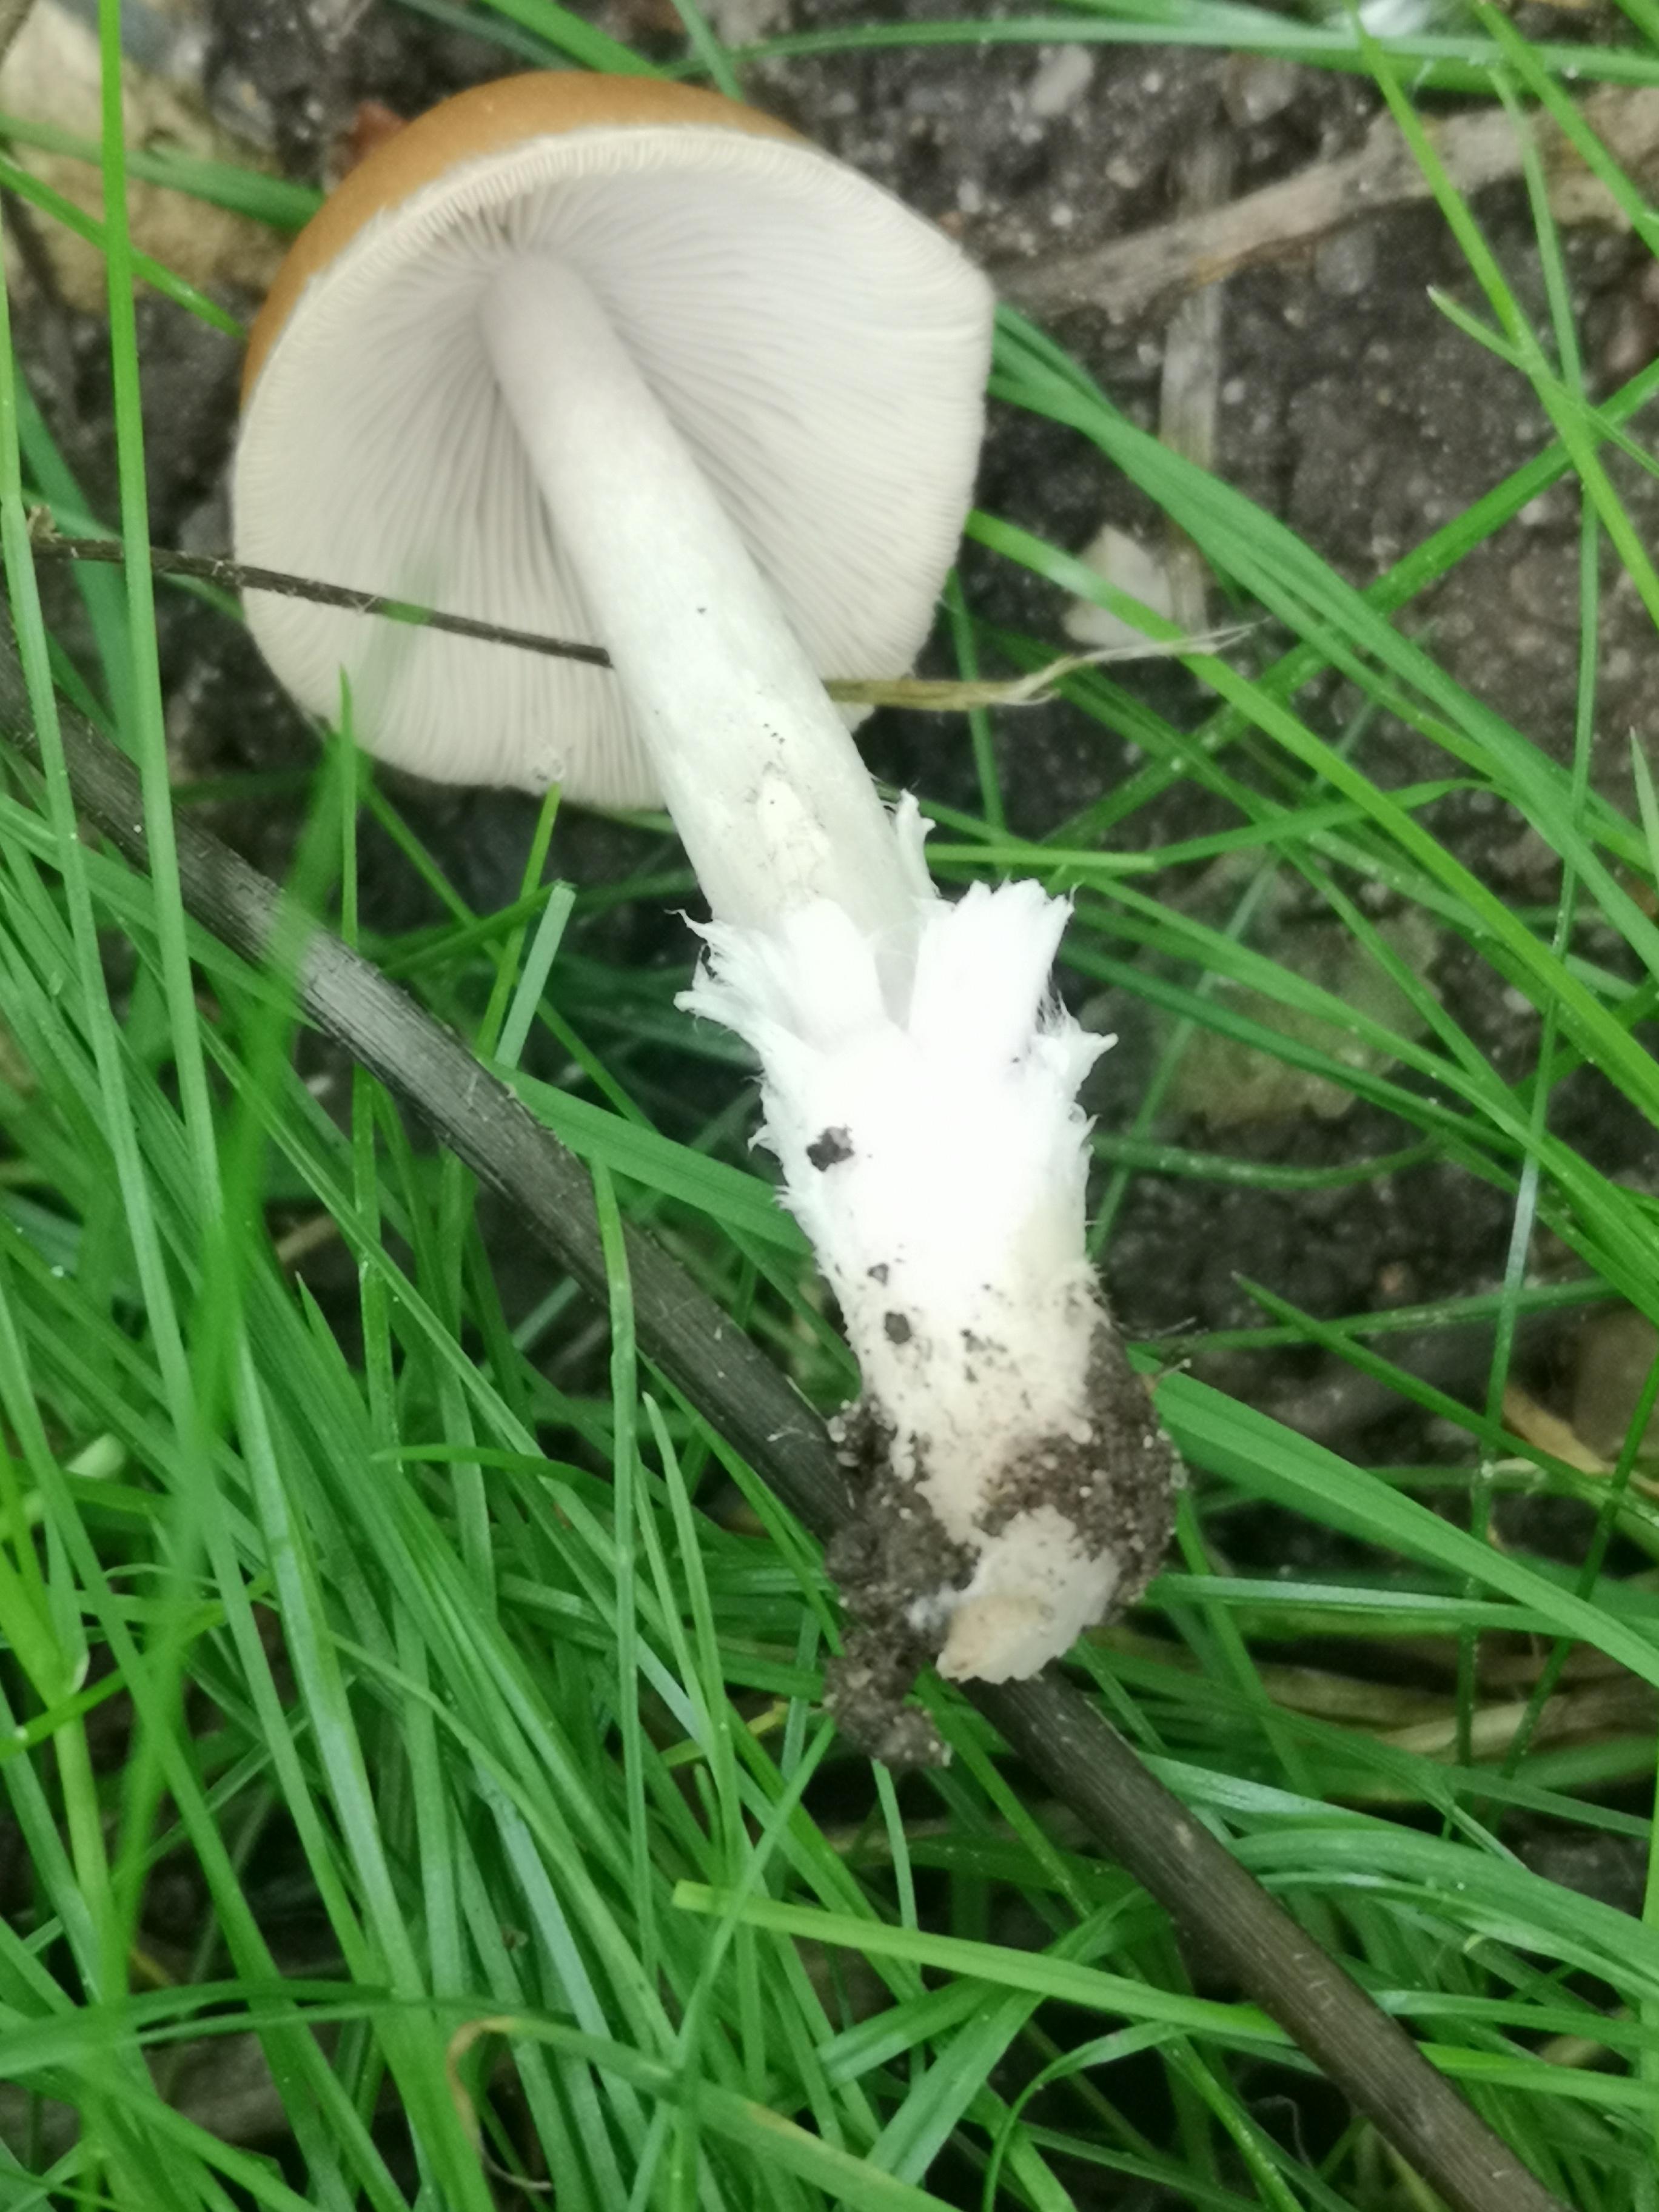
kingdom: Fungi
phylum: Basidiomycota
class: Agaricomycetes
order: Agaricales
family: Psathyrellaceae
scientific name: Psathyrellaceae
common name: mørkhatfamilien
